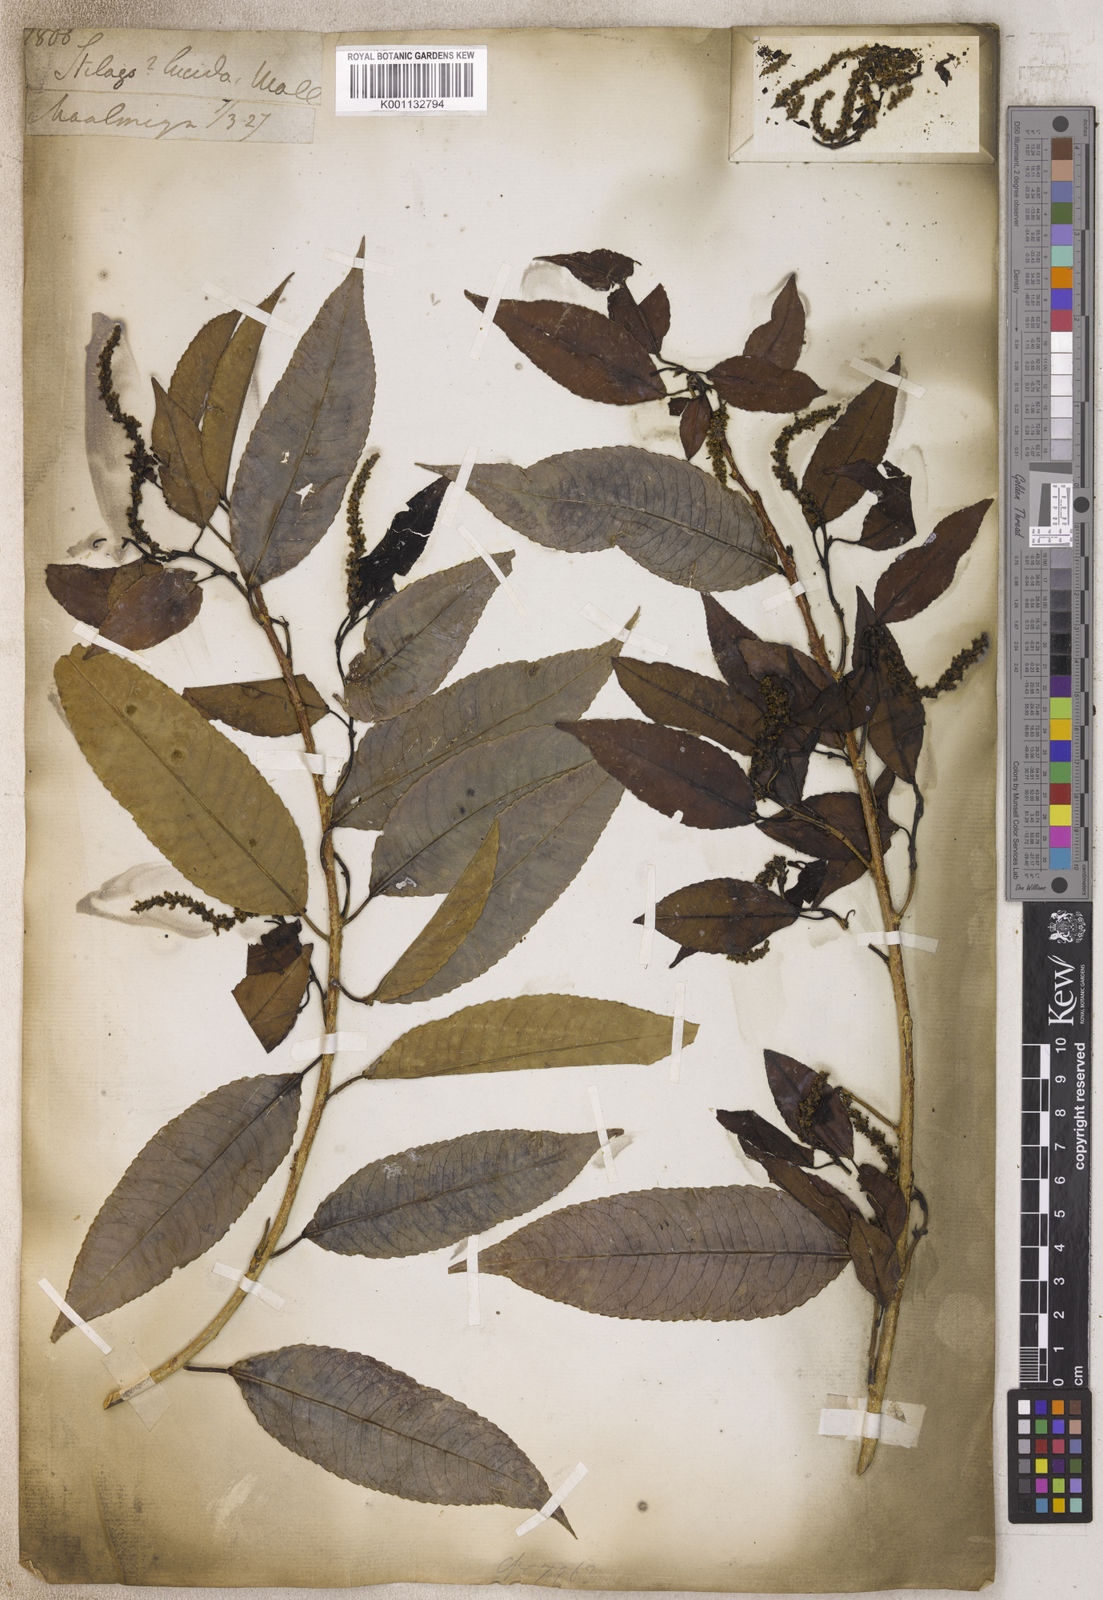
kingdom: Plantae
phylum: Tracheophyta
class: Magnoliopsida
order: Malpighiales
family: Phyllanthaceae
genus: Antidesma
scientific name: Antidesma
